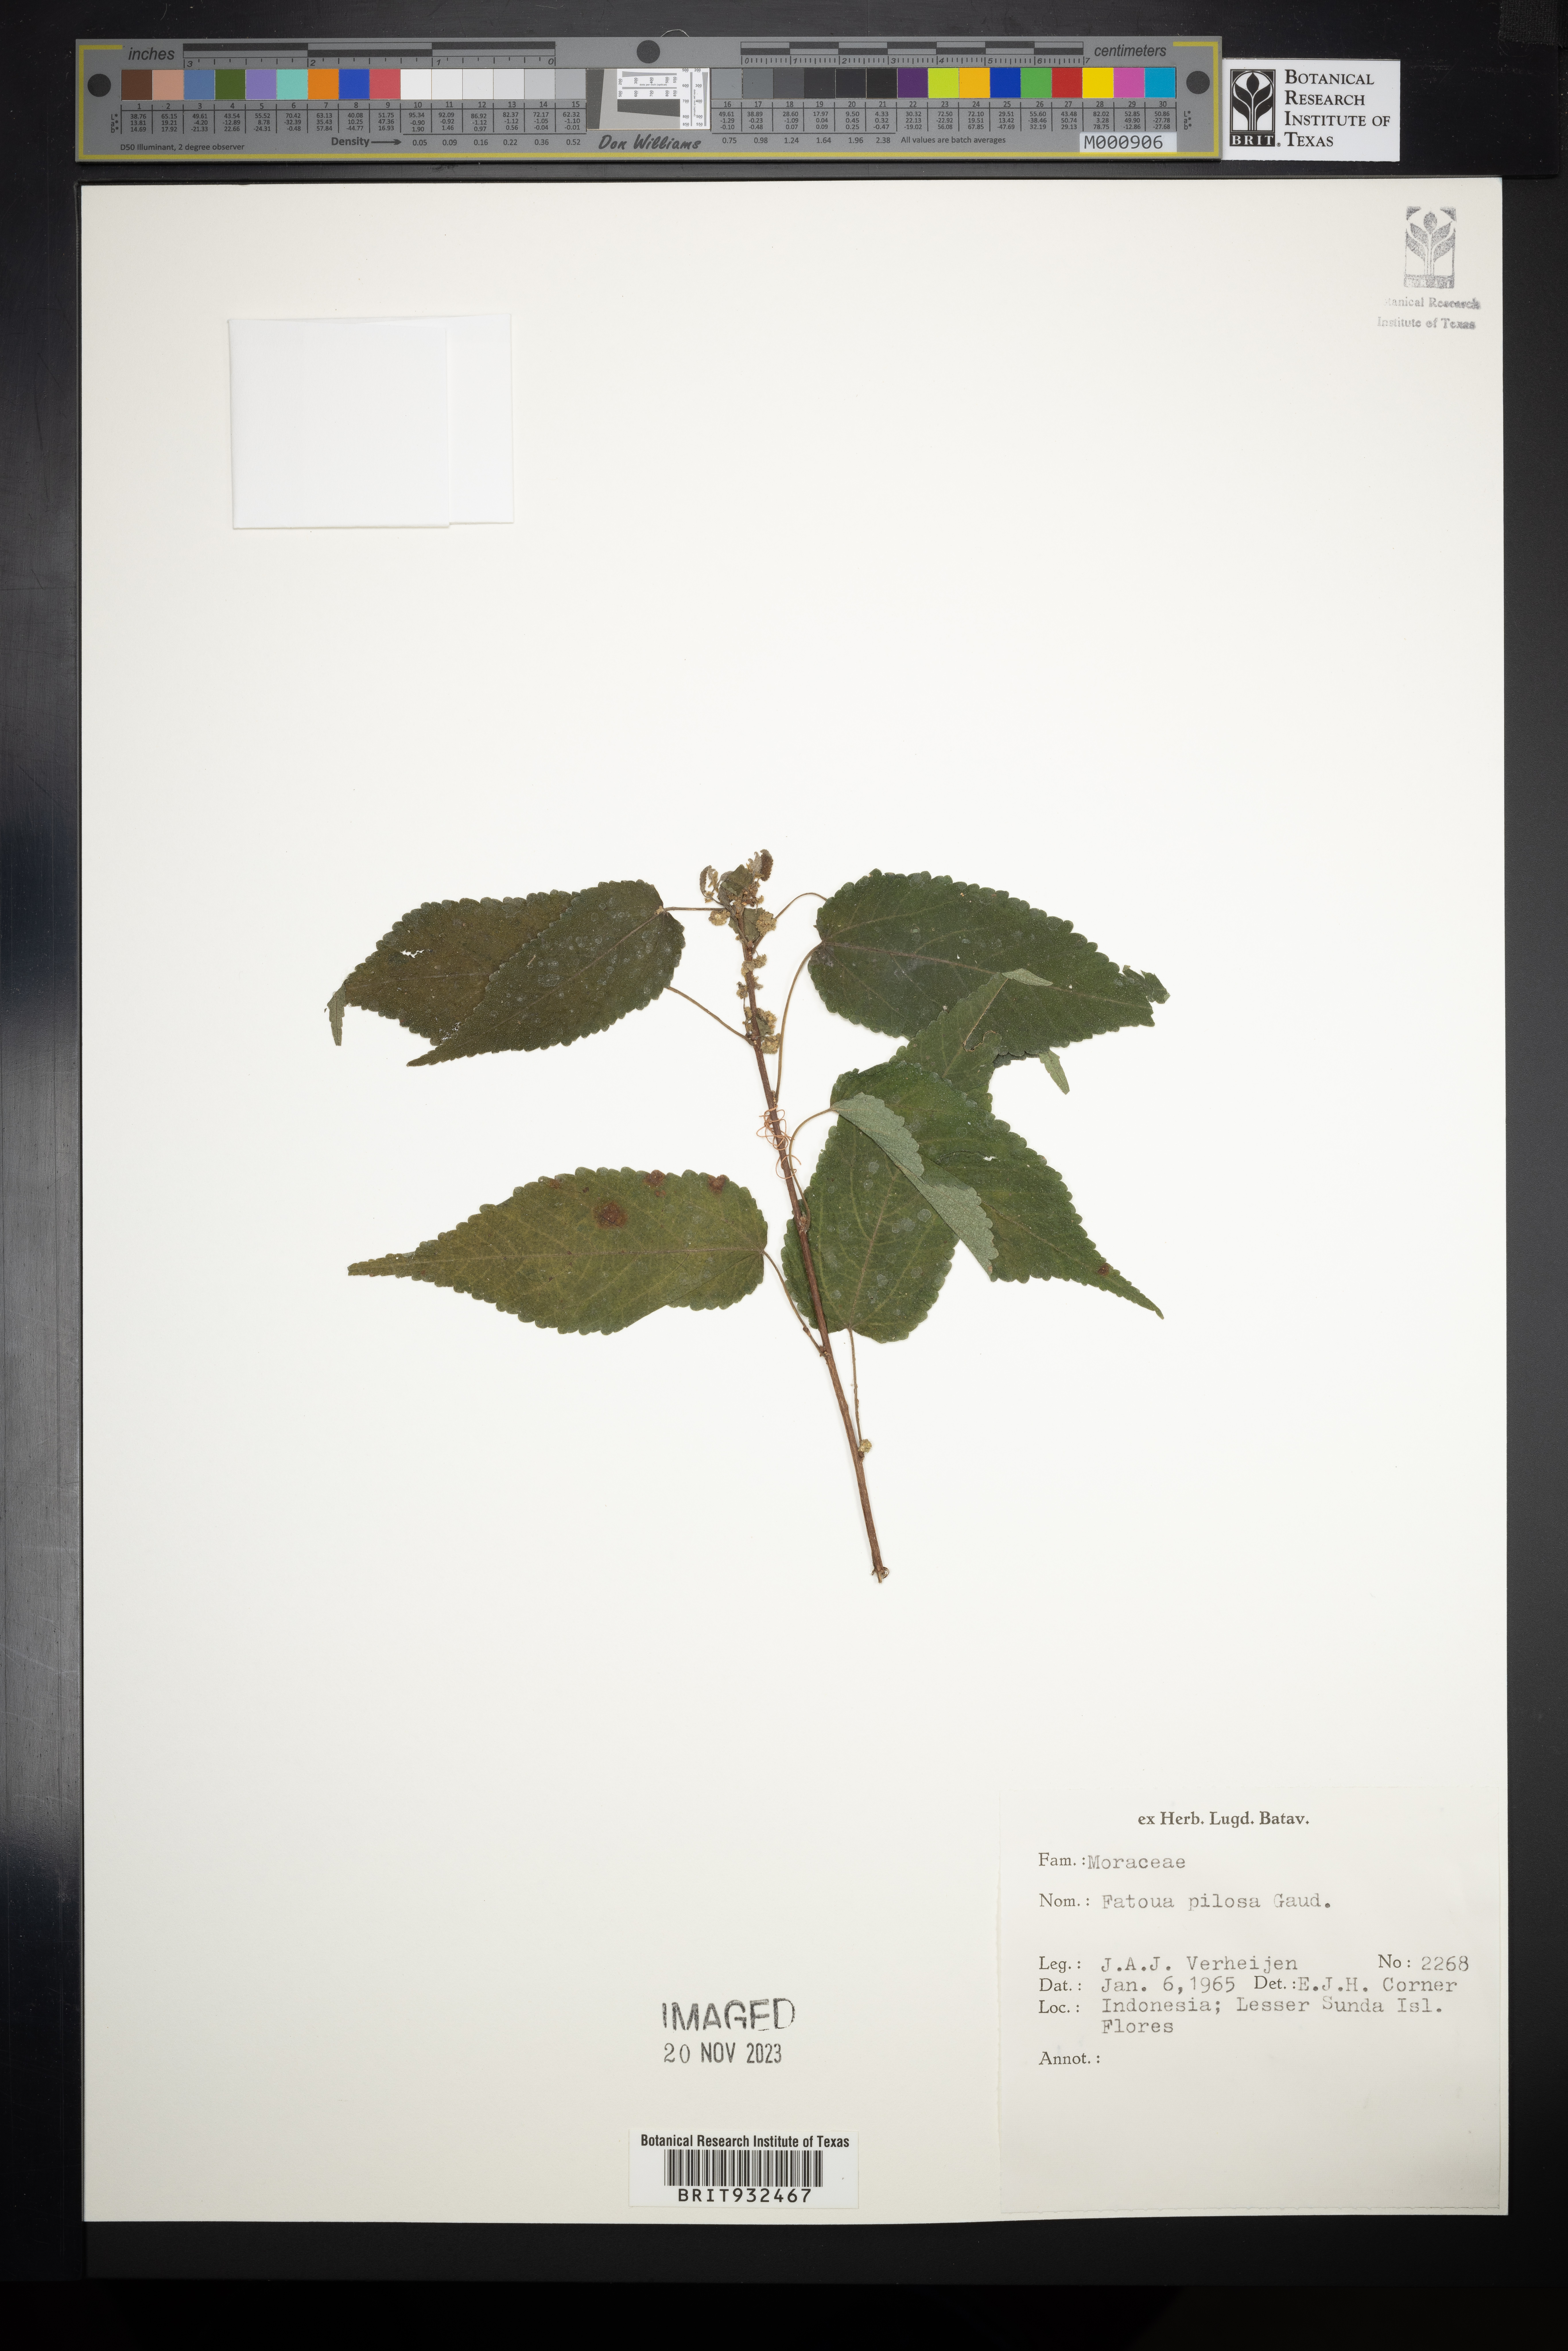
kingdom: Plantae
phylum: Tracheophyta
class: Magnoliopsida
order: Rosales
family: Moraceae
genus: Fatoua
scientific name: Fatoua
